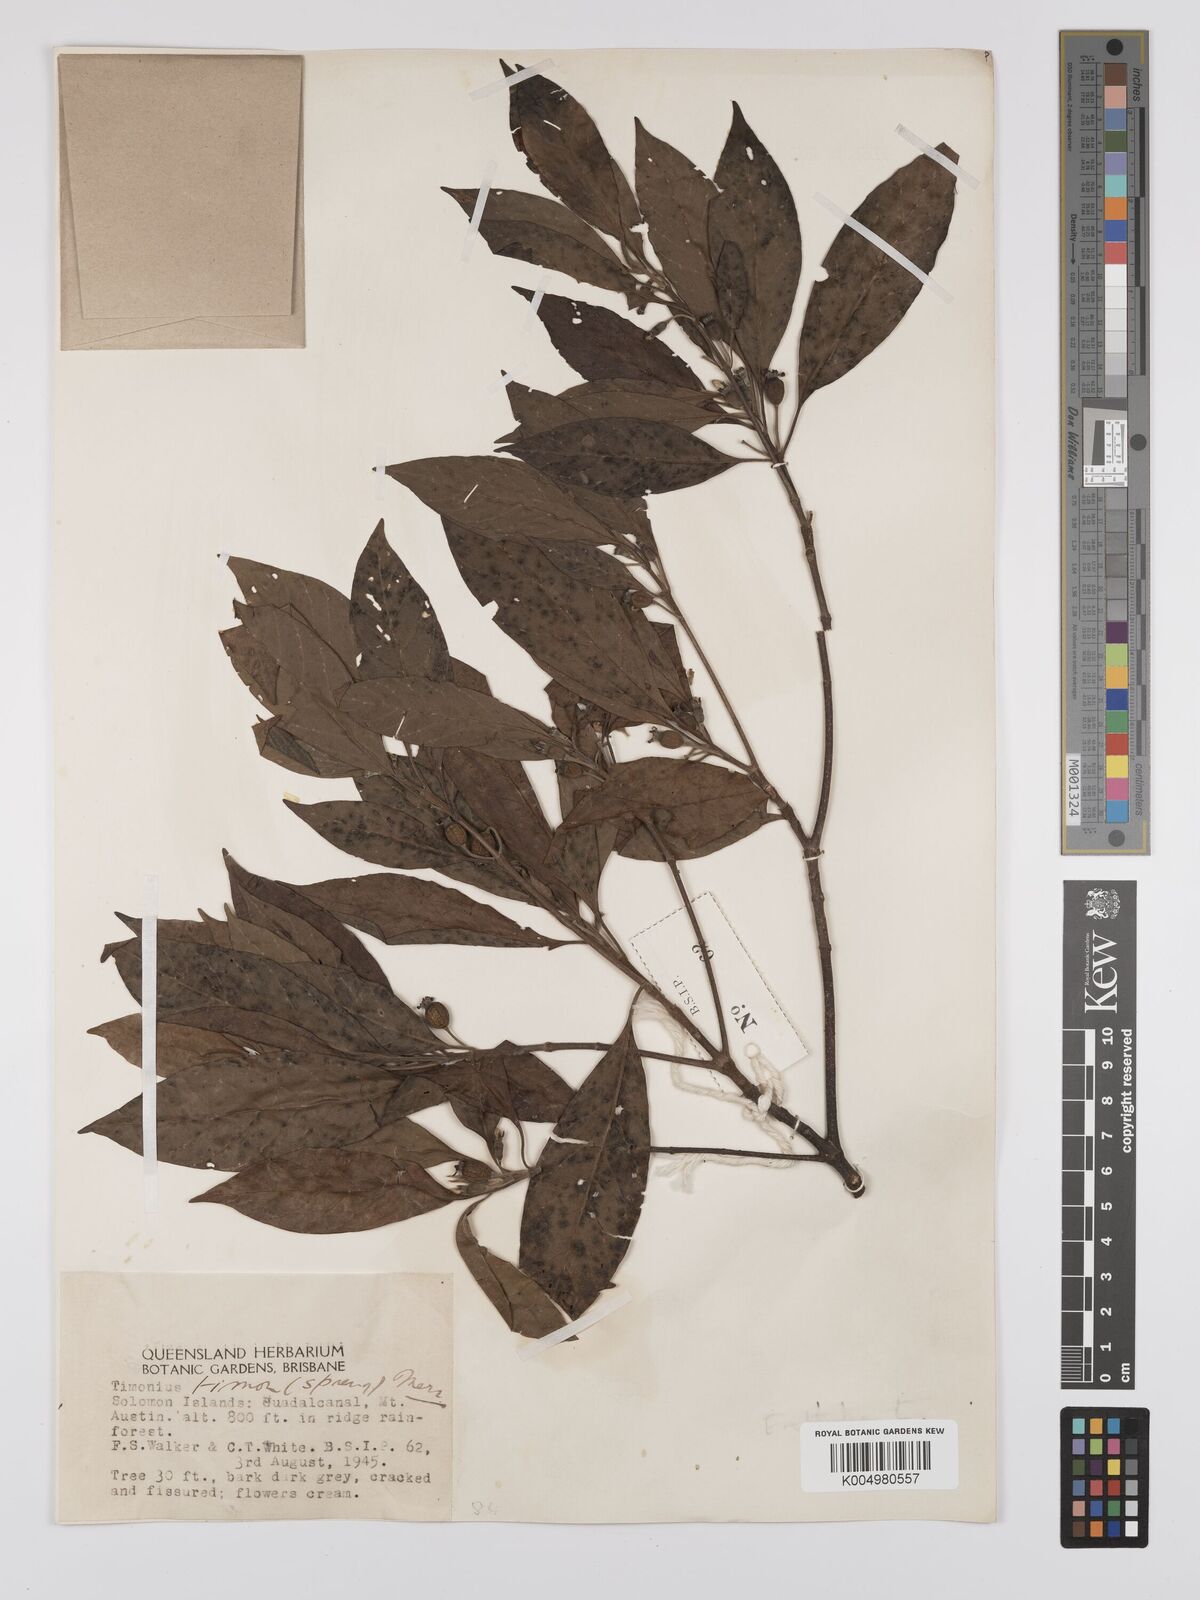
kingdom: Plantae
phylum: Tracheophyta
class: Magnoliopsida
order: Gentianales
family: Rubiaceae
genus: Timonius
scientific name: Timonius timon
